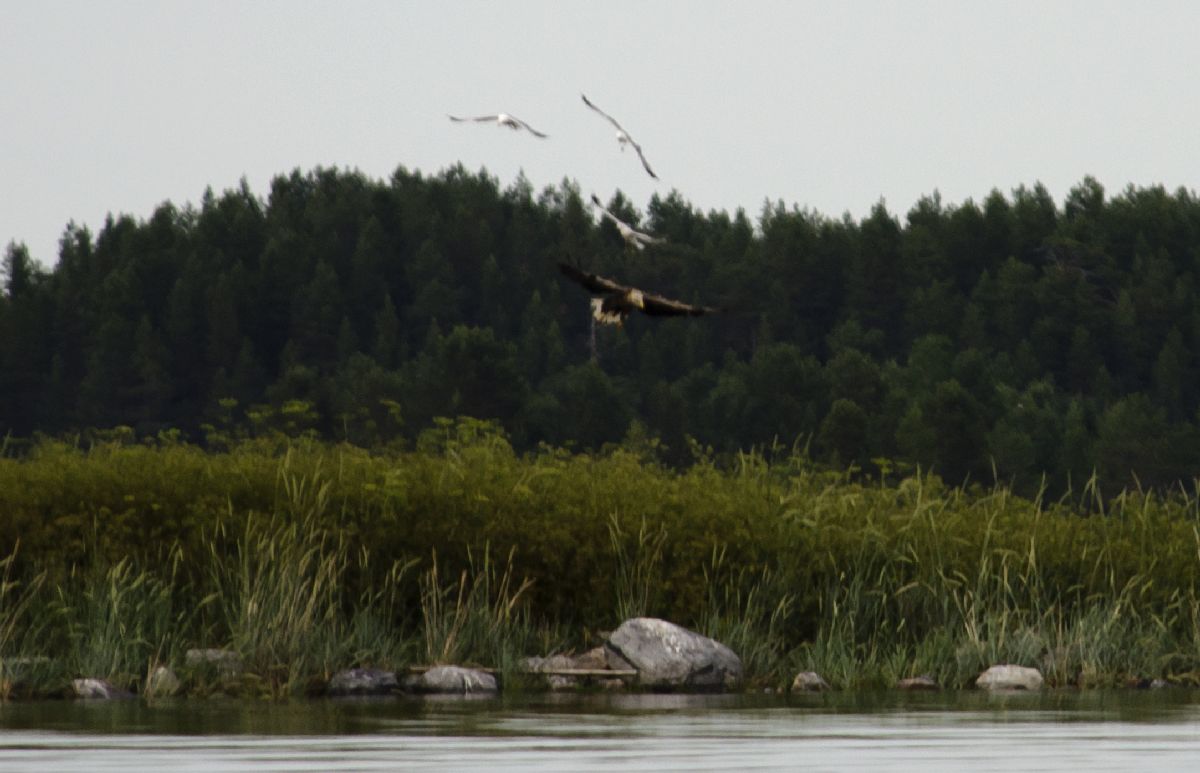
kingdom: Animalia
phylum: Chordata
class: Aves
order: Accipitriformes
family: Accipitridae
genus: Haliaeetus
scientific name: Haliaeetus albicilla
